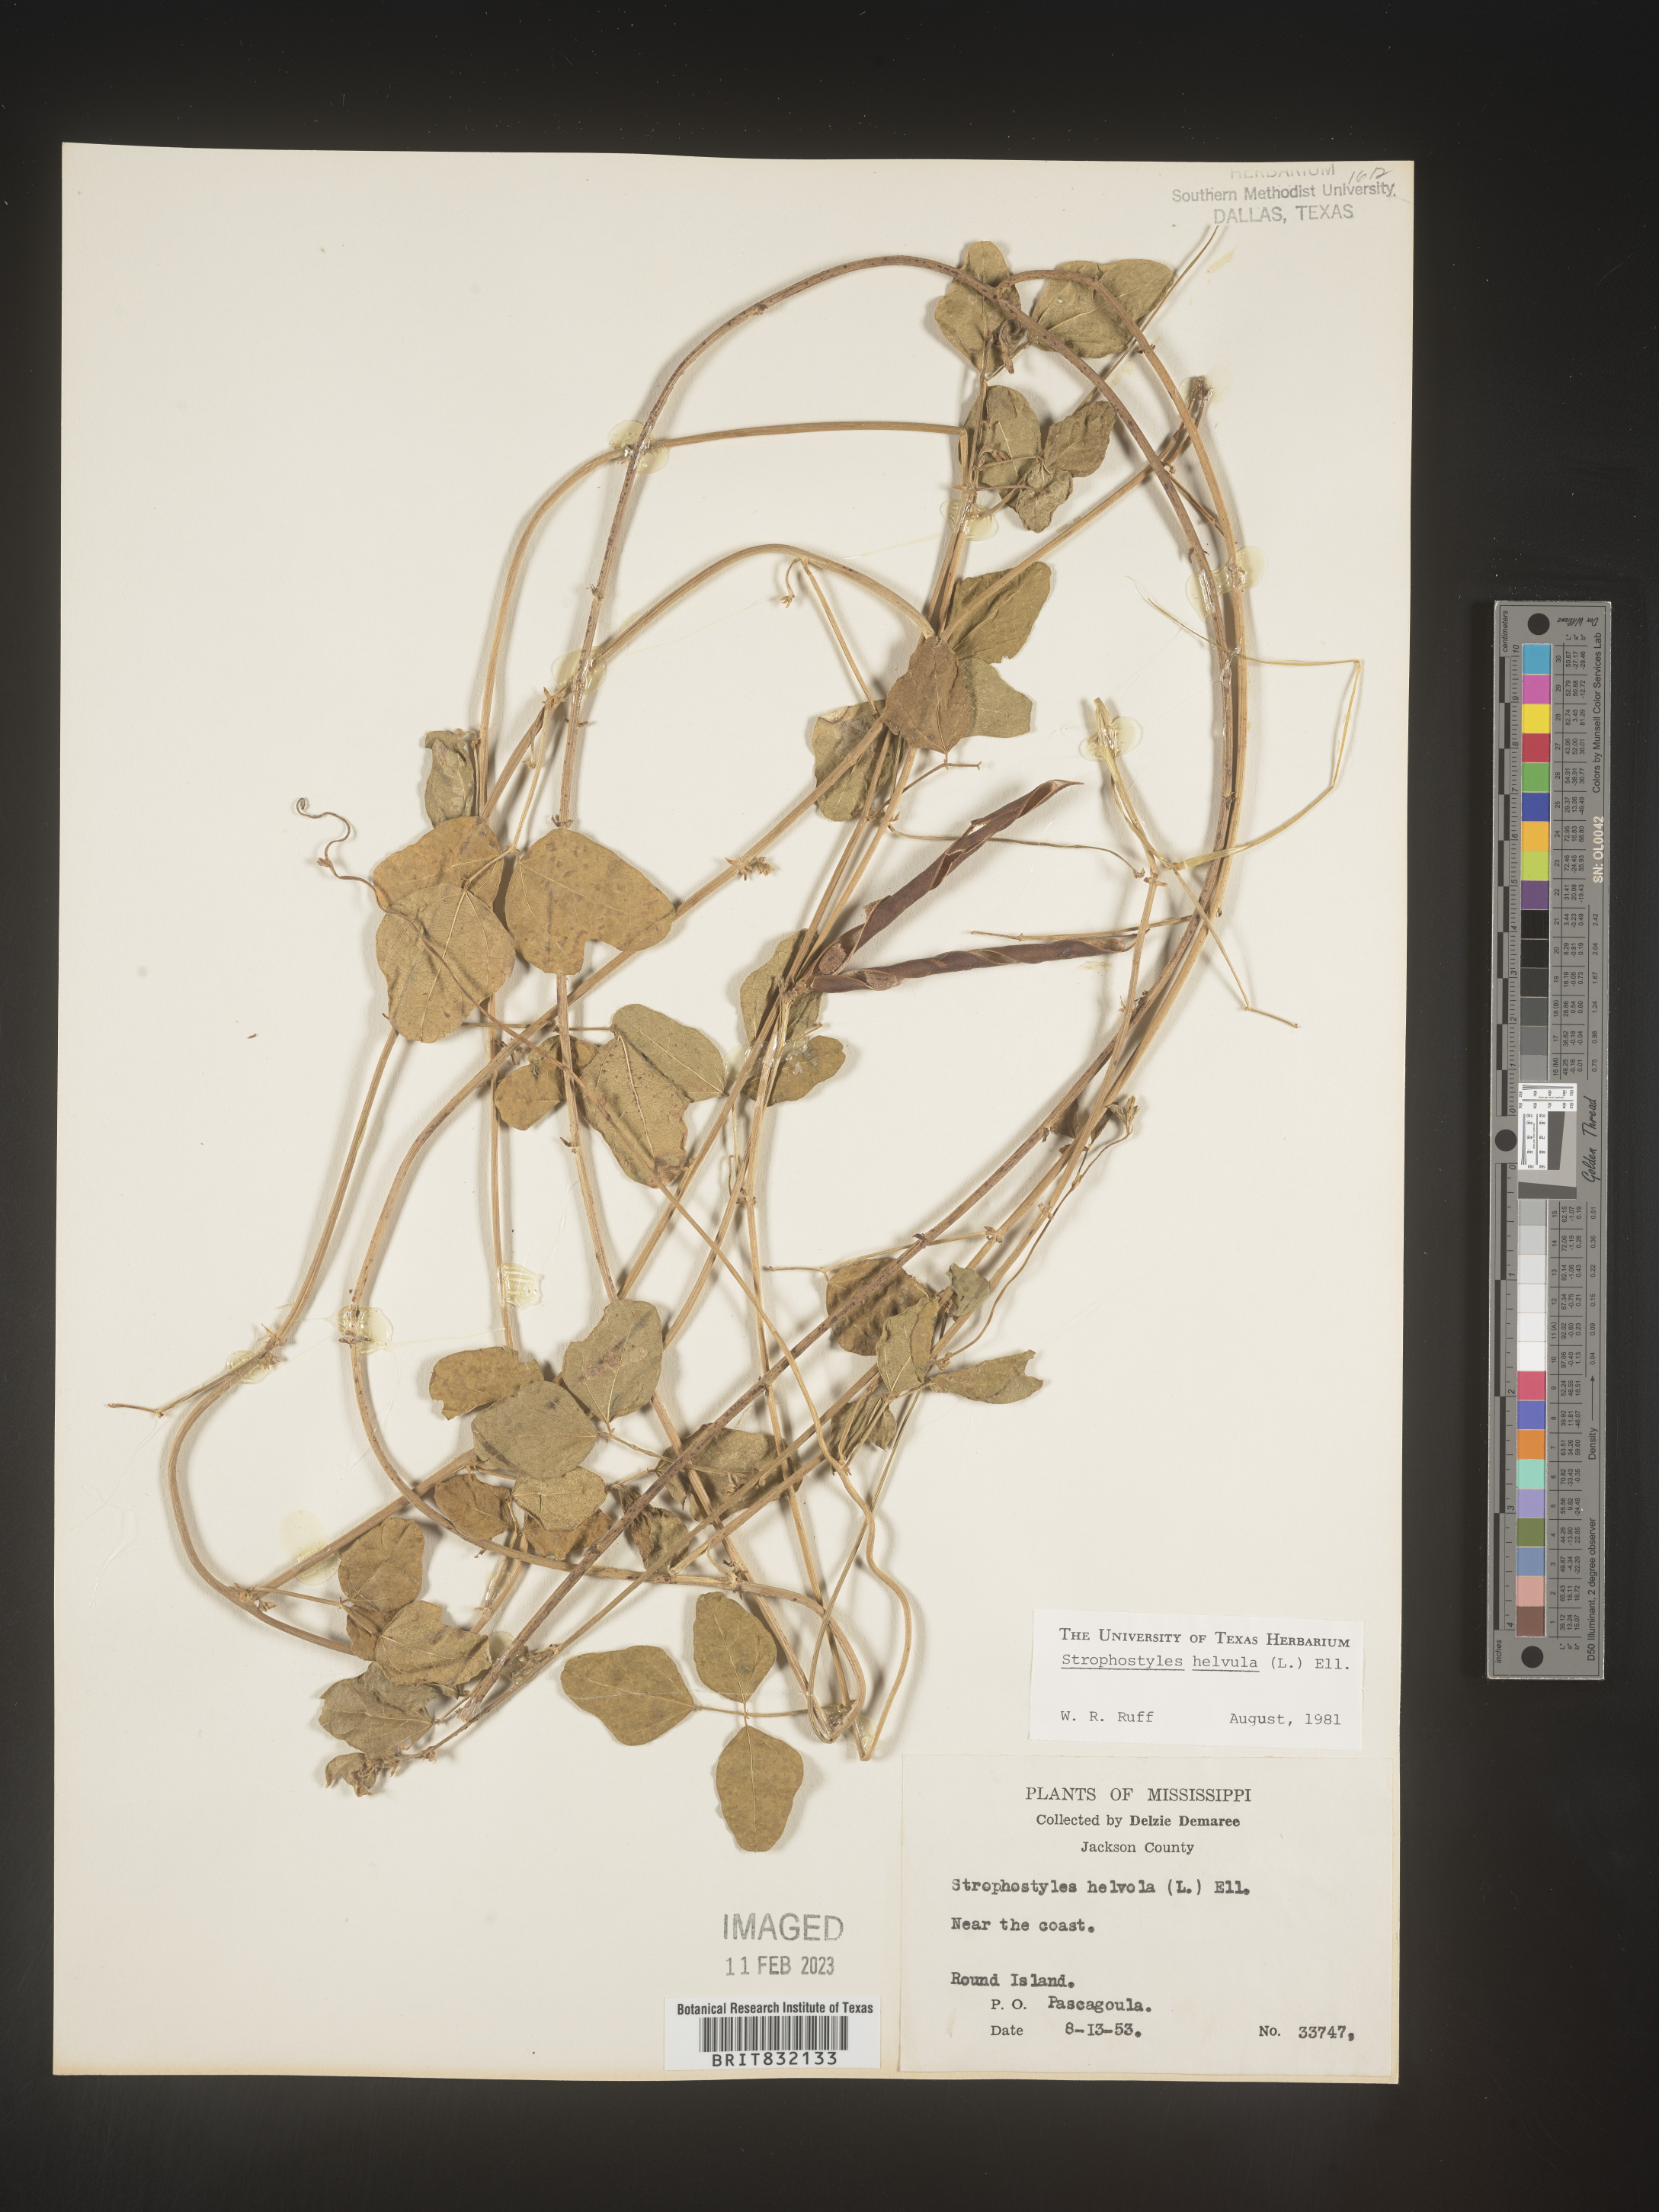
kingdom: Plantae
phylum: Tracheophyta
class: Magnoliopsida
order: Fabales
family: Fabaceae
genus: Strophostyles
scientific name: Strophostyles helvola
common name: Trailing wild bean
